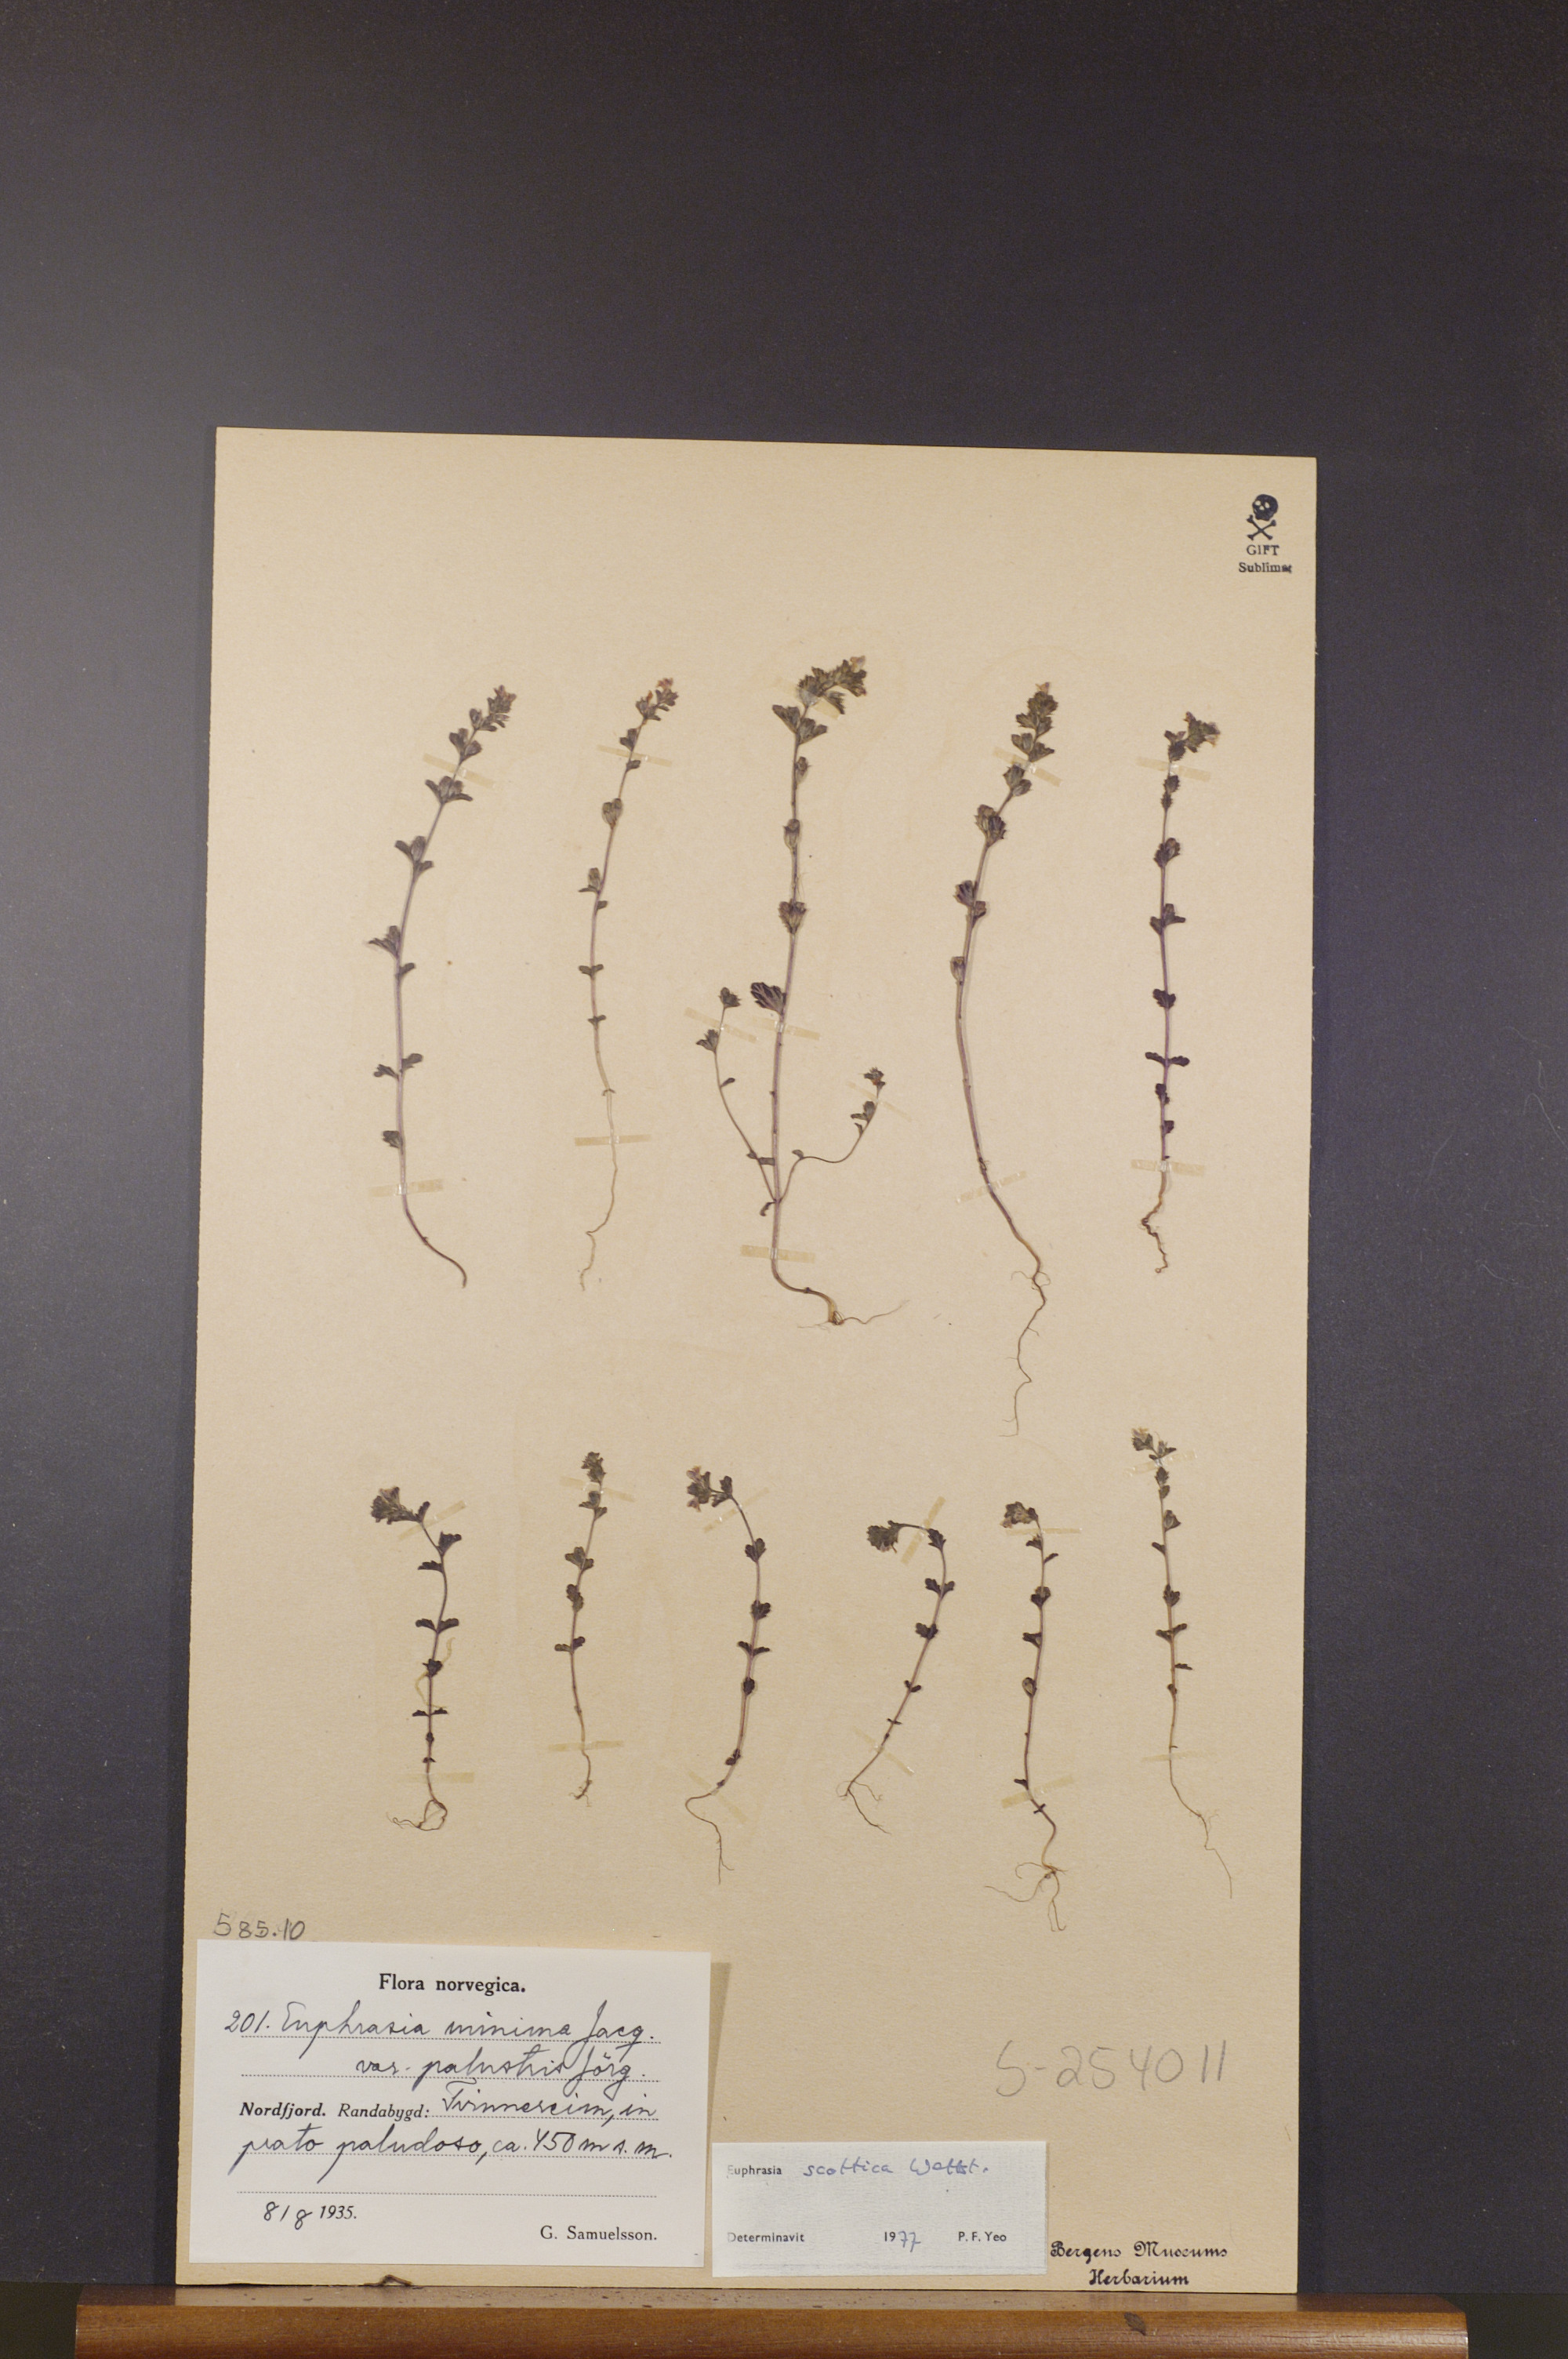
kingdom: Plantae
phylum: Tracheophyta
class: Magnoliopsida
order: Lamiales
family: Orobanchaceae
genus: Euphrasia
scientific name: Euphrasia scottica
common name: Slender scottish eyebright
